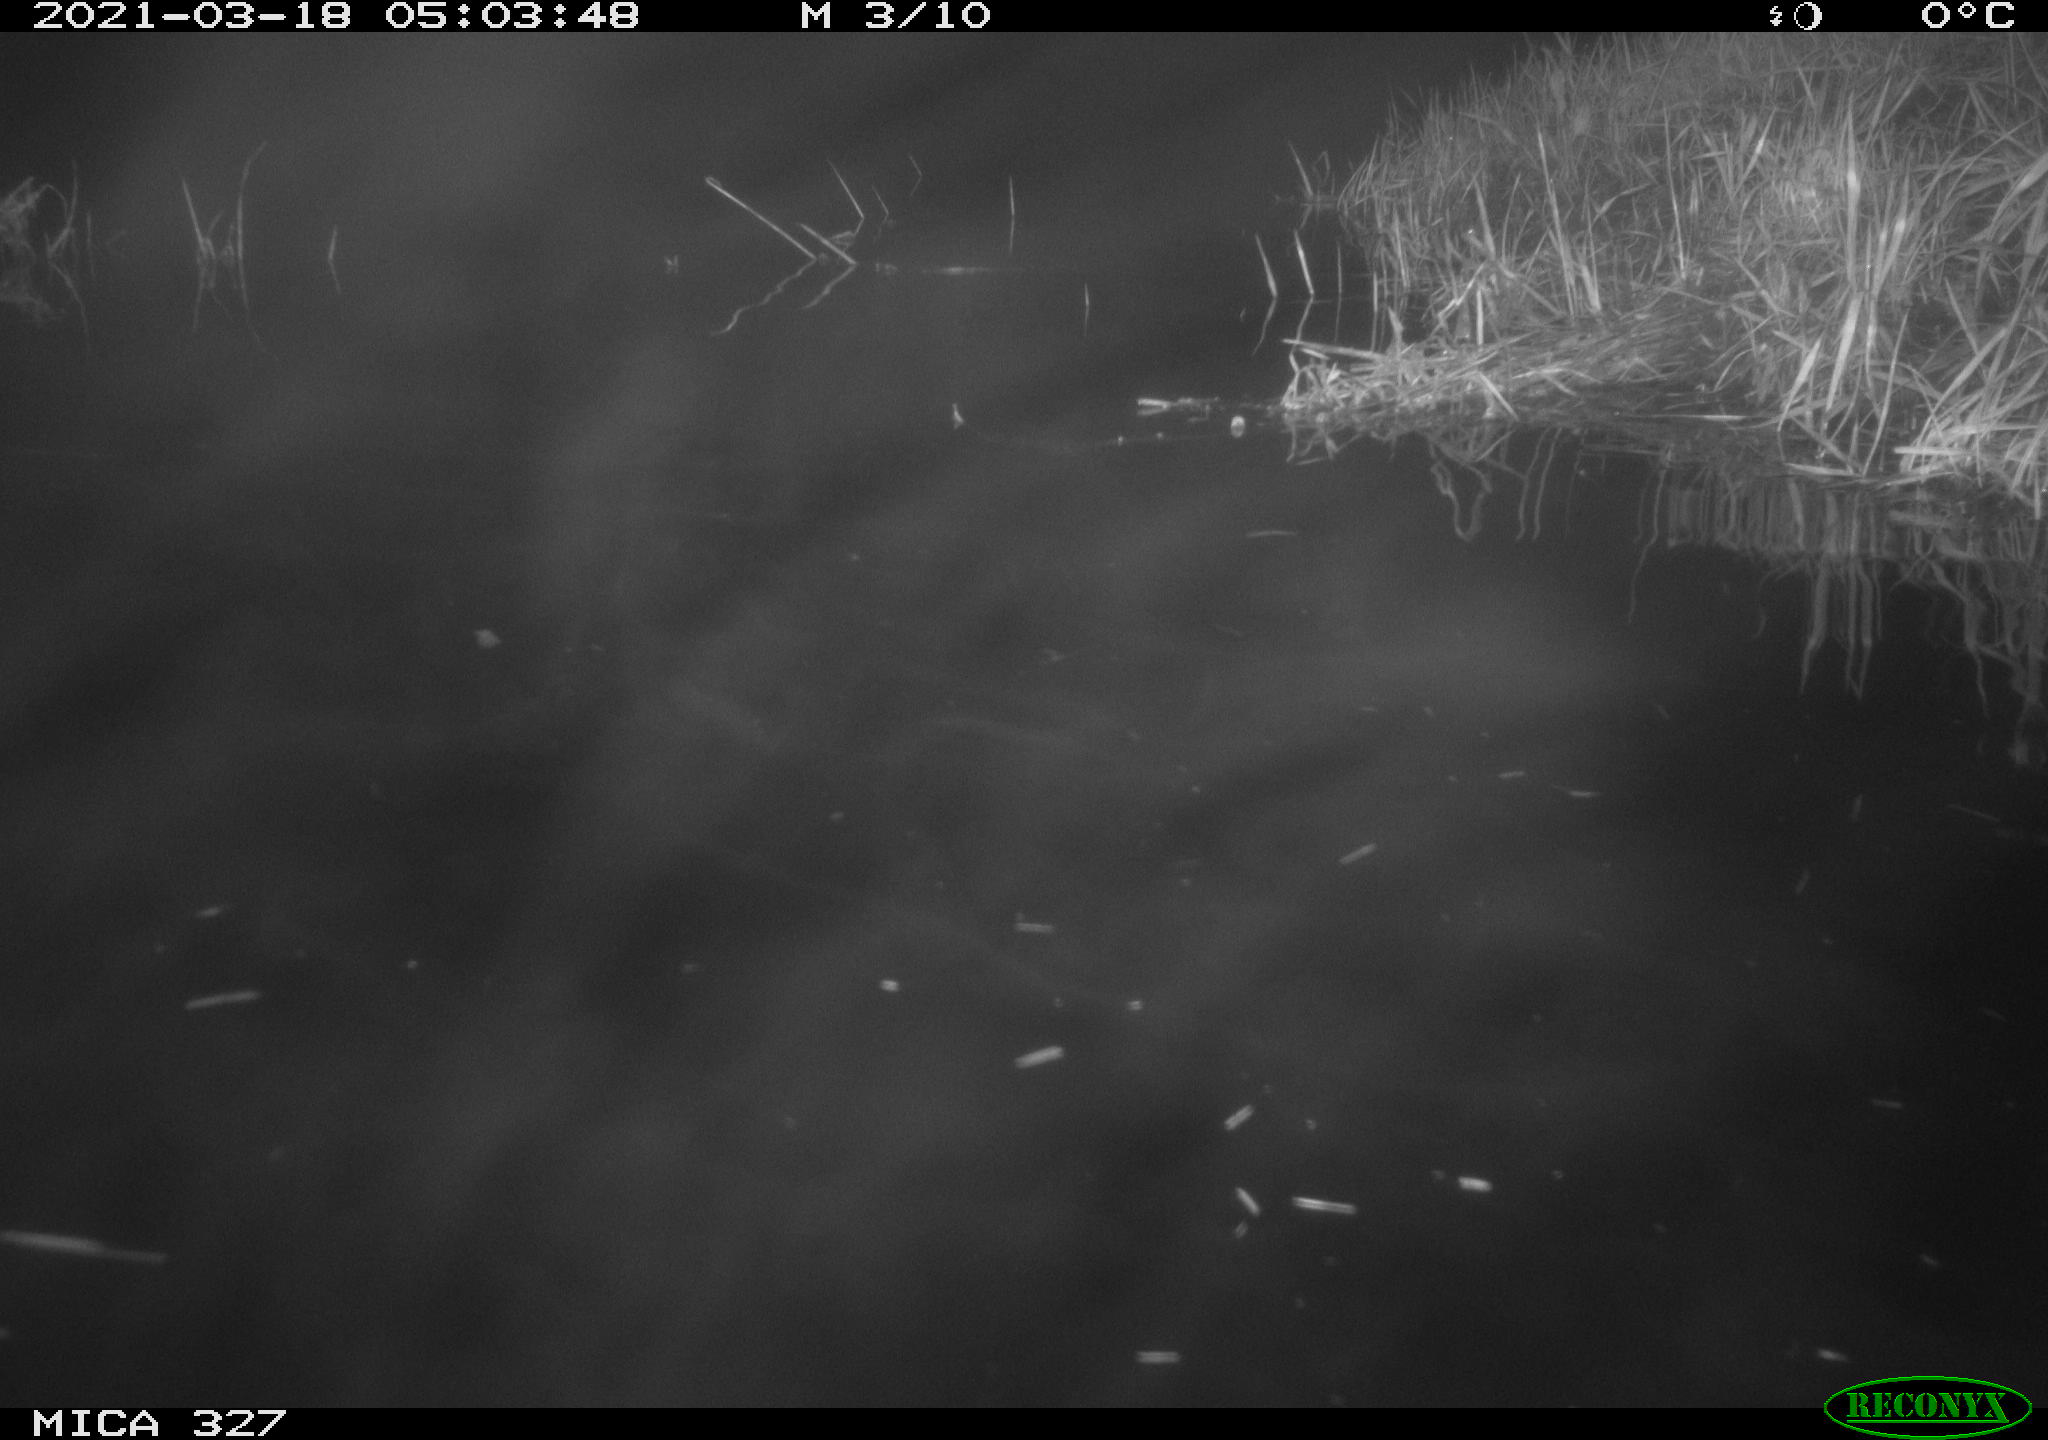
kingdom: Animalia
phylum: Chordata
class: Mammalia
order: Rodentia
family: Cricetidae
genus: Ondatra
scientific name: Ondatra zibethicus
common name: Muskrat
